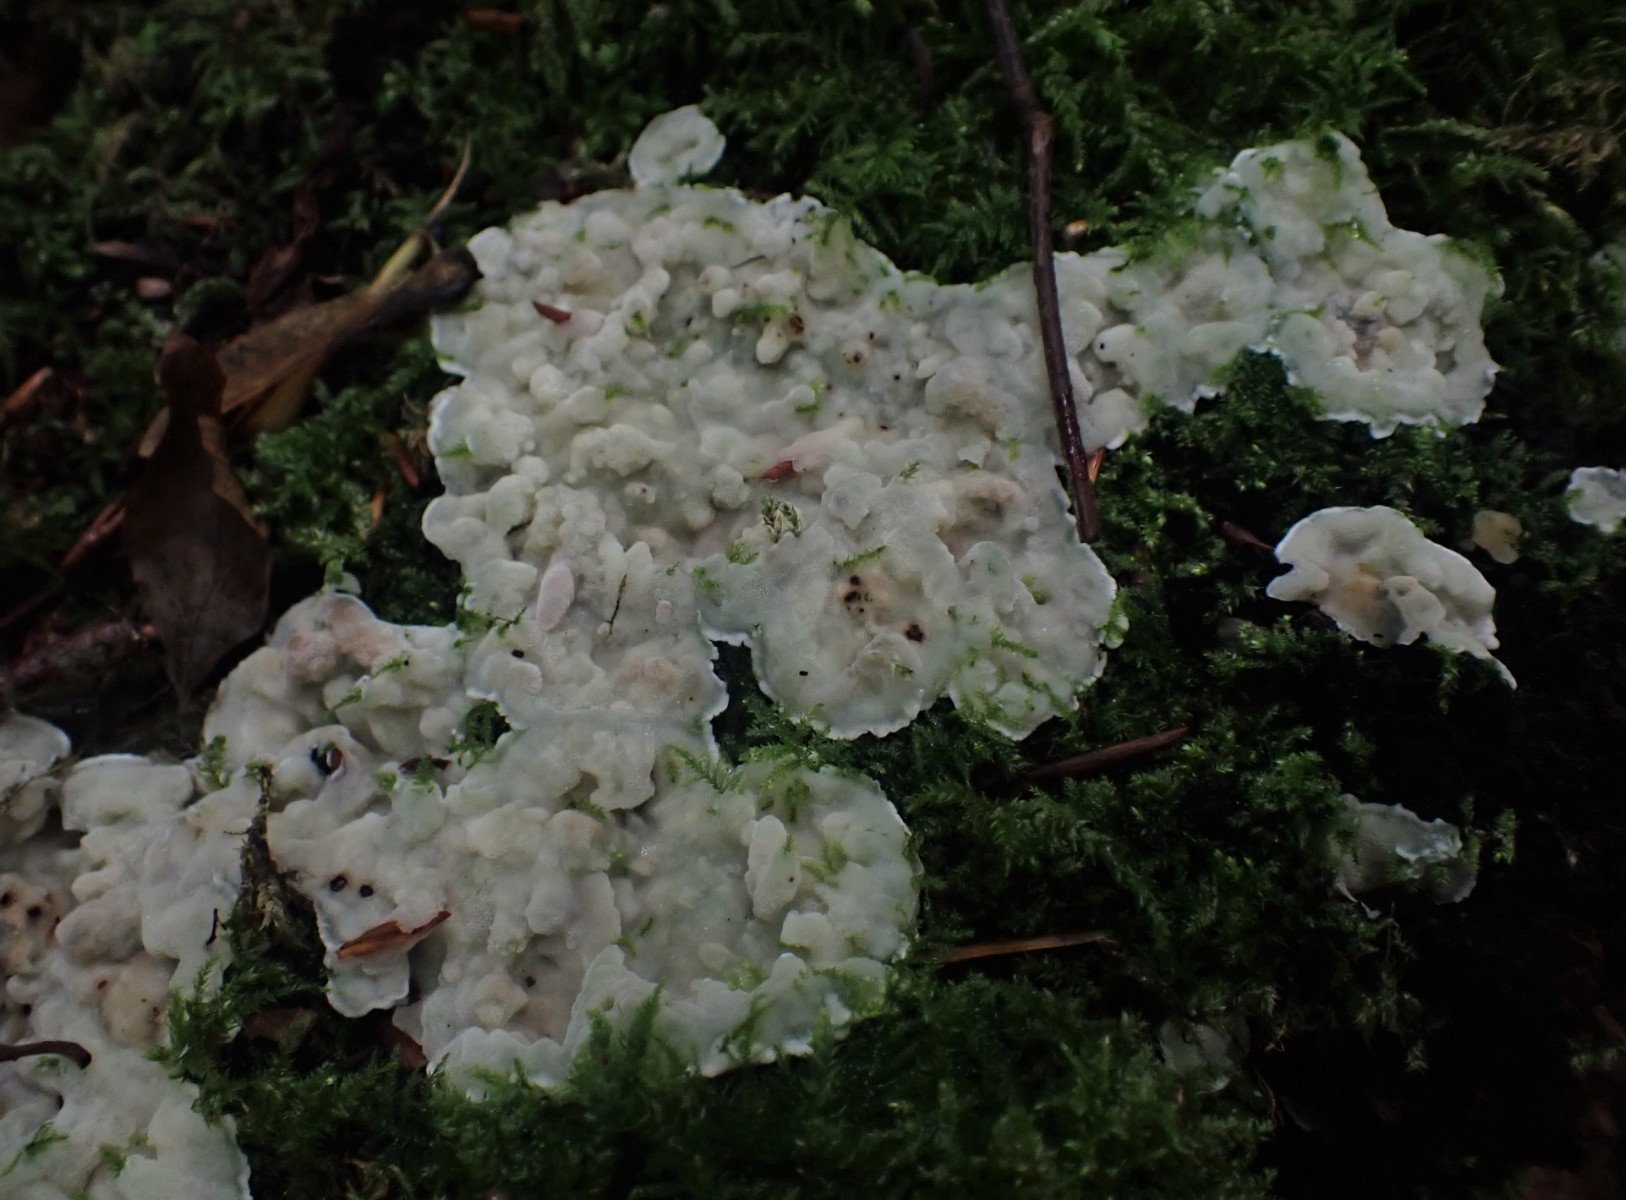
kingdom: Fungi
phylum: Basidiomycota
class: Agaricomycetes
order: Polyporales
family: Meruliaceae
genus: Physisporinus
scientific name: Physisporinus vitreus
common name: mastesvamp
